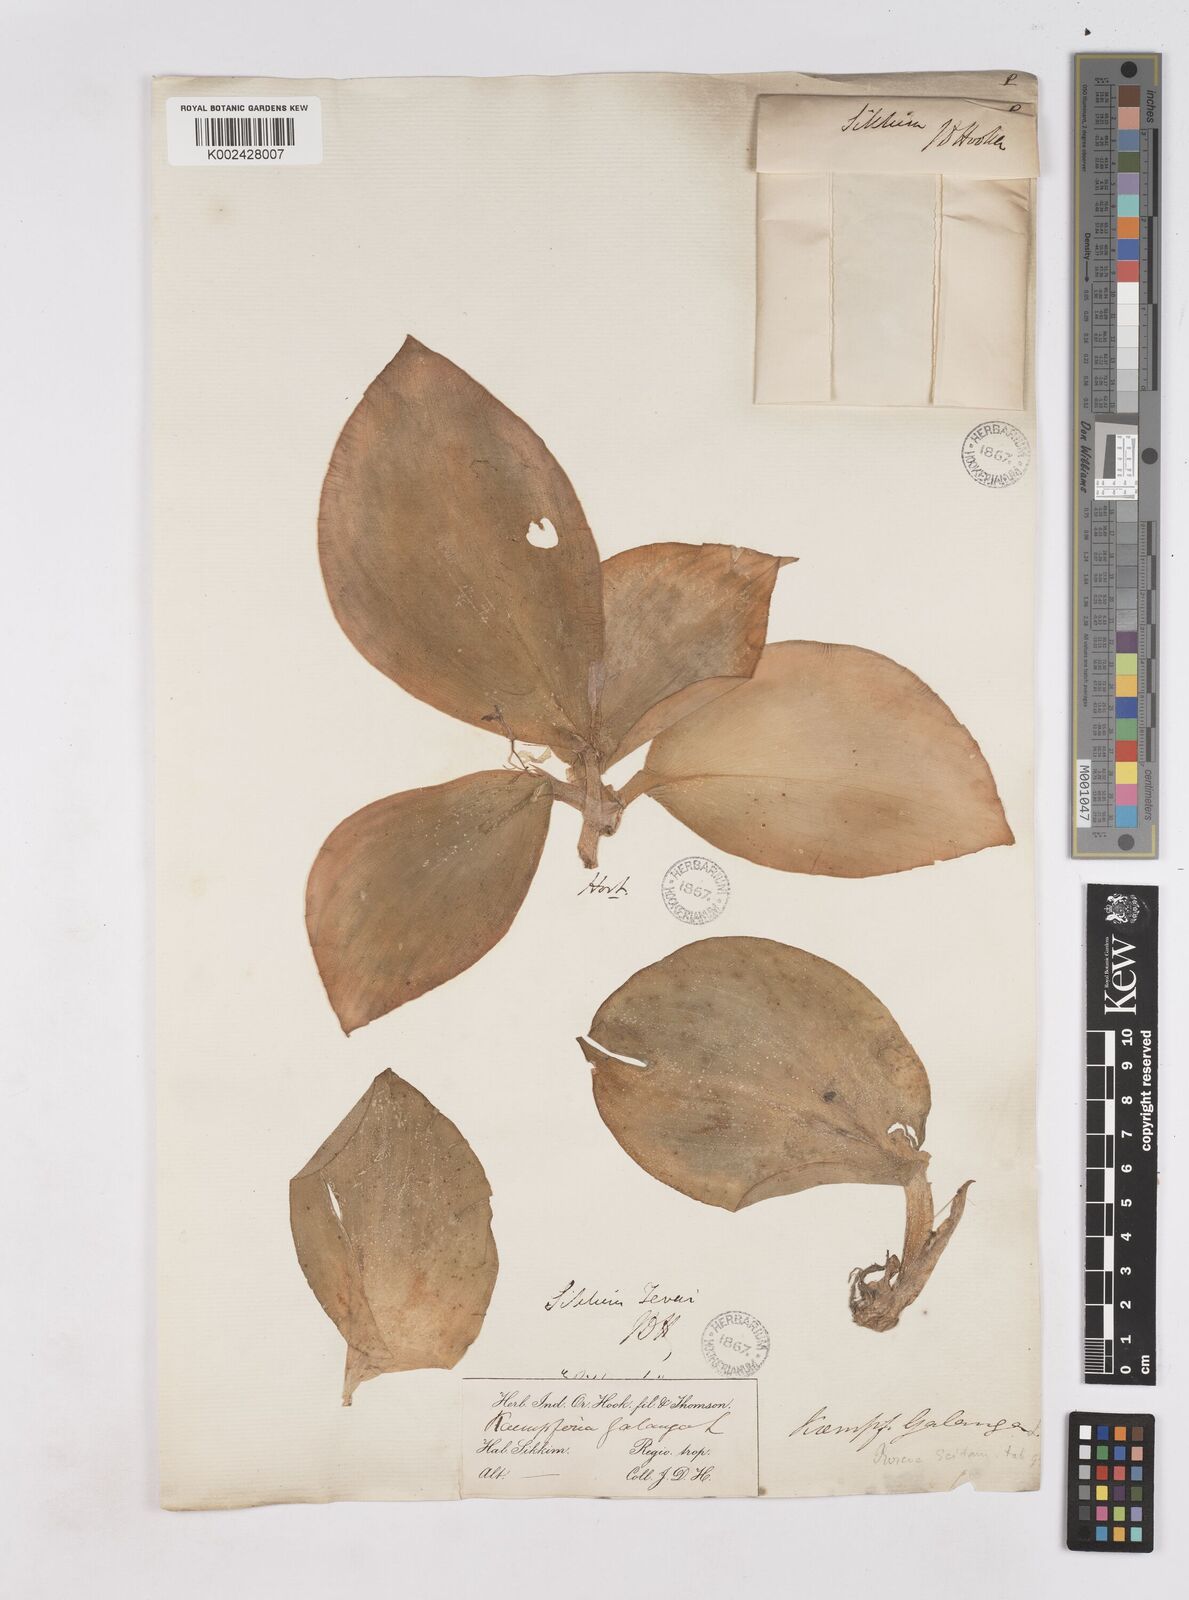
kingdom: Plantae
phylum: Tracheophyta
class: Liliopsida
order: Zingiberales
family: Zingiberaceae
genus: Kaempferia
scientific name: Kaempferia galanga
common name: Aromatic ginger
